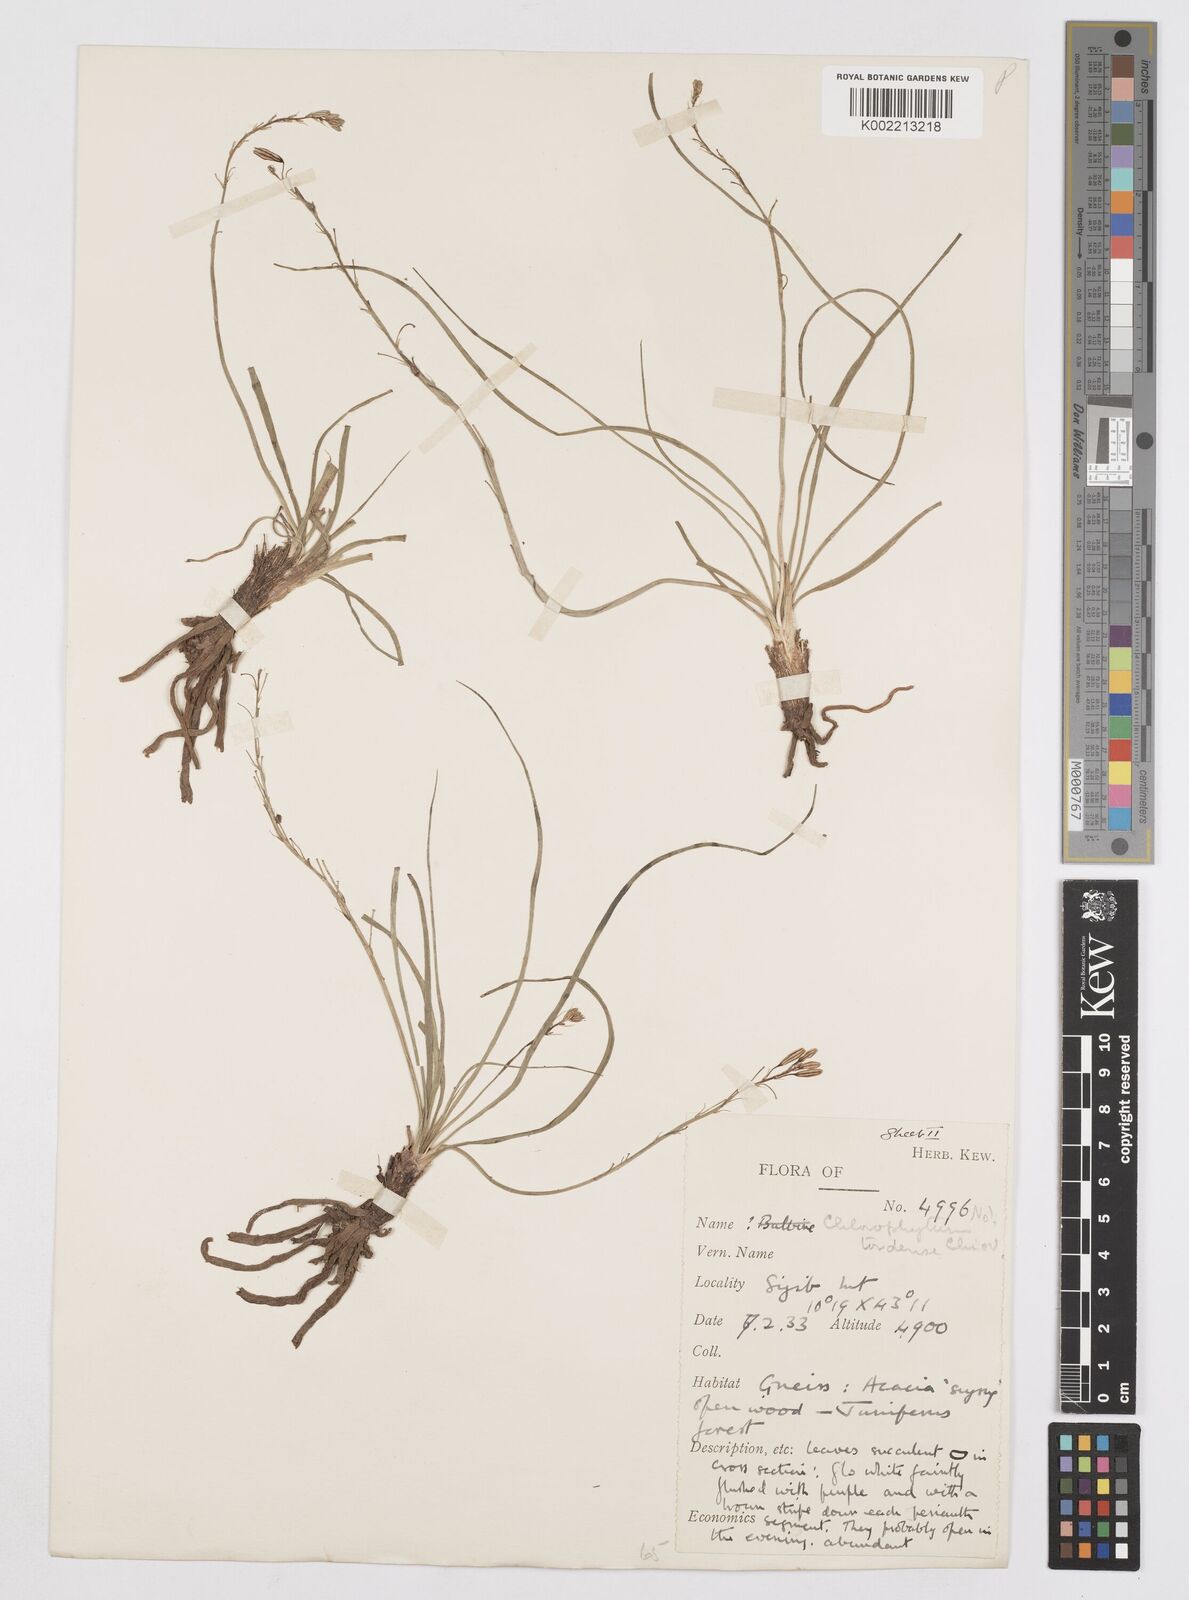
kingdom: Plantae
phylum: Tracheophyta
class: Liliopsida
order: Asparagales
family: Asphodelaceae
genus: Trachyandra
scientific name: Trachyandra saltii
